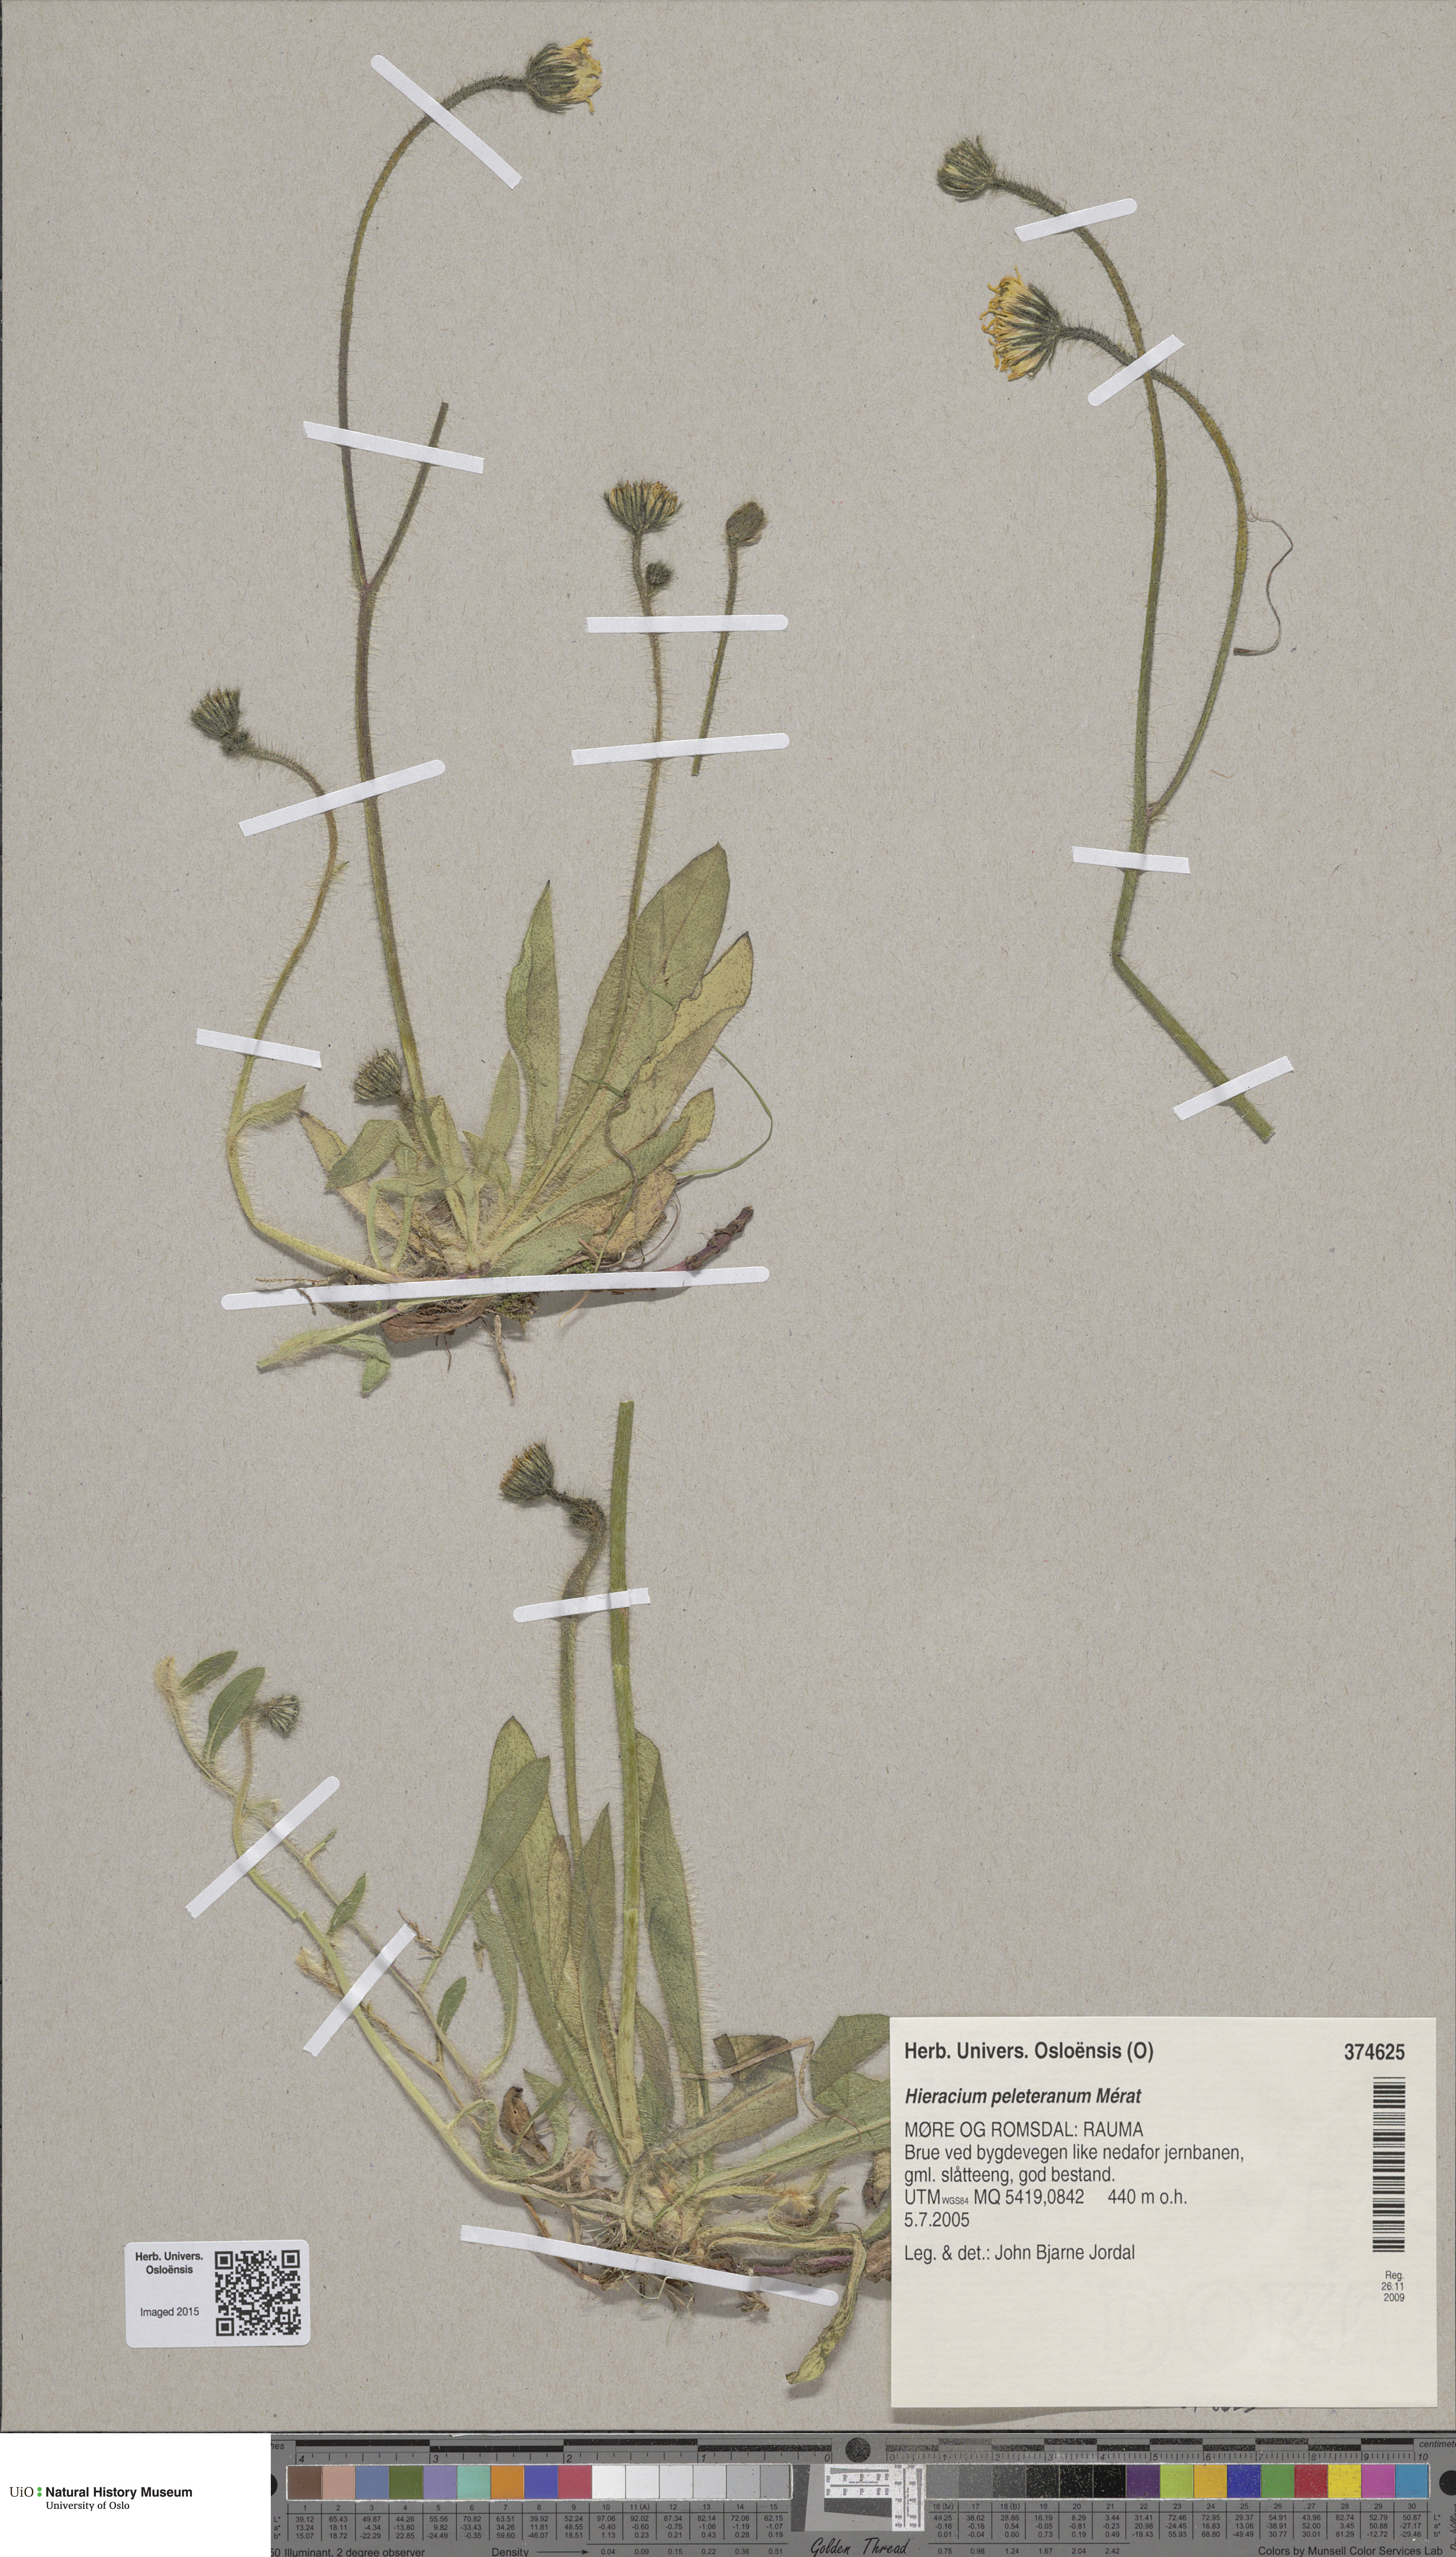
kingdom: Plantae
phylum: Tracheophyta
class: Magnoliopsida
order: Asterales
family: Asteraceae
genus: Pilosella
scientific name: Pilosella peleteriana
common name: Shaggy mouse-ear-hawkweed
